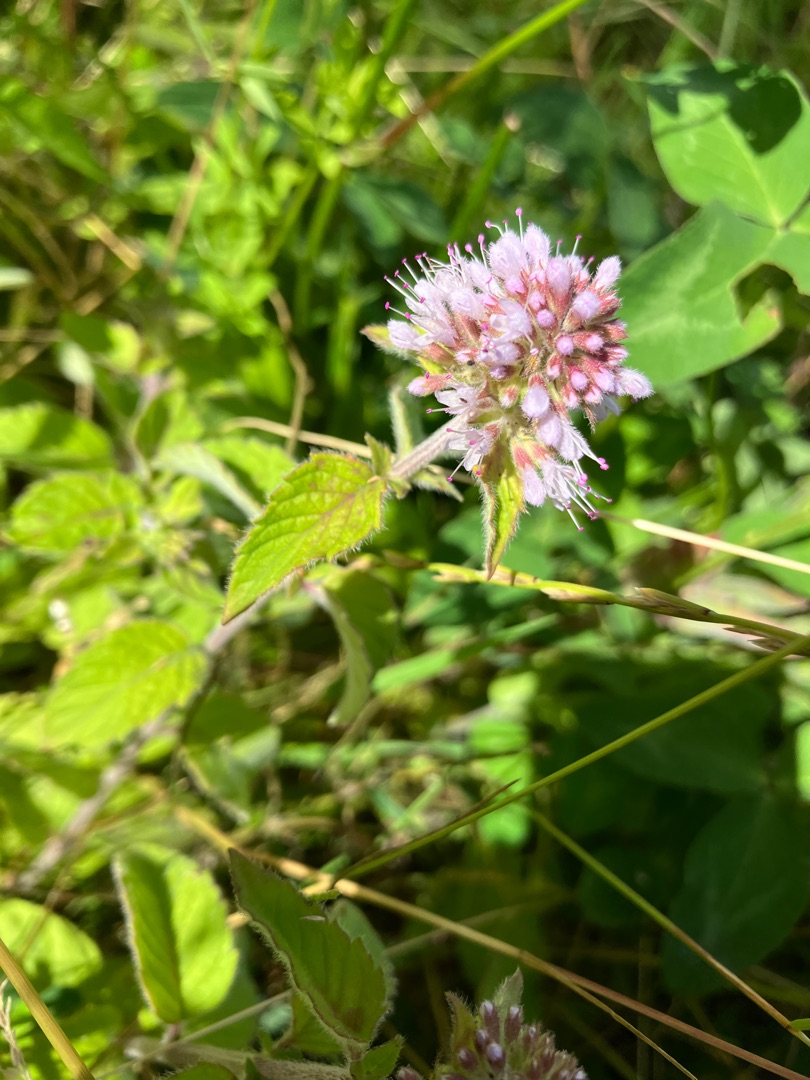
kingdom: Plantae
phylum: Tracheophyta
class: Magnoliopsida
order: Lamiales
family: Lamiaceae
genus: Mentha
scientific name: Mentha aquatica
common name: Vand-mynte
